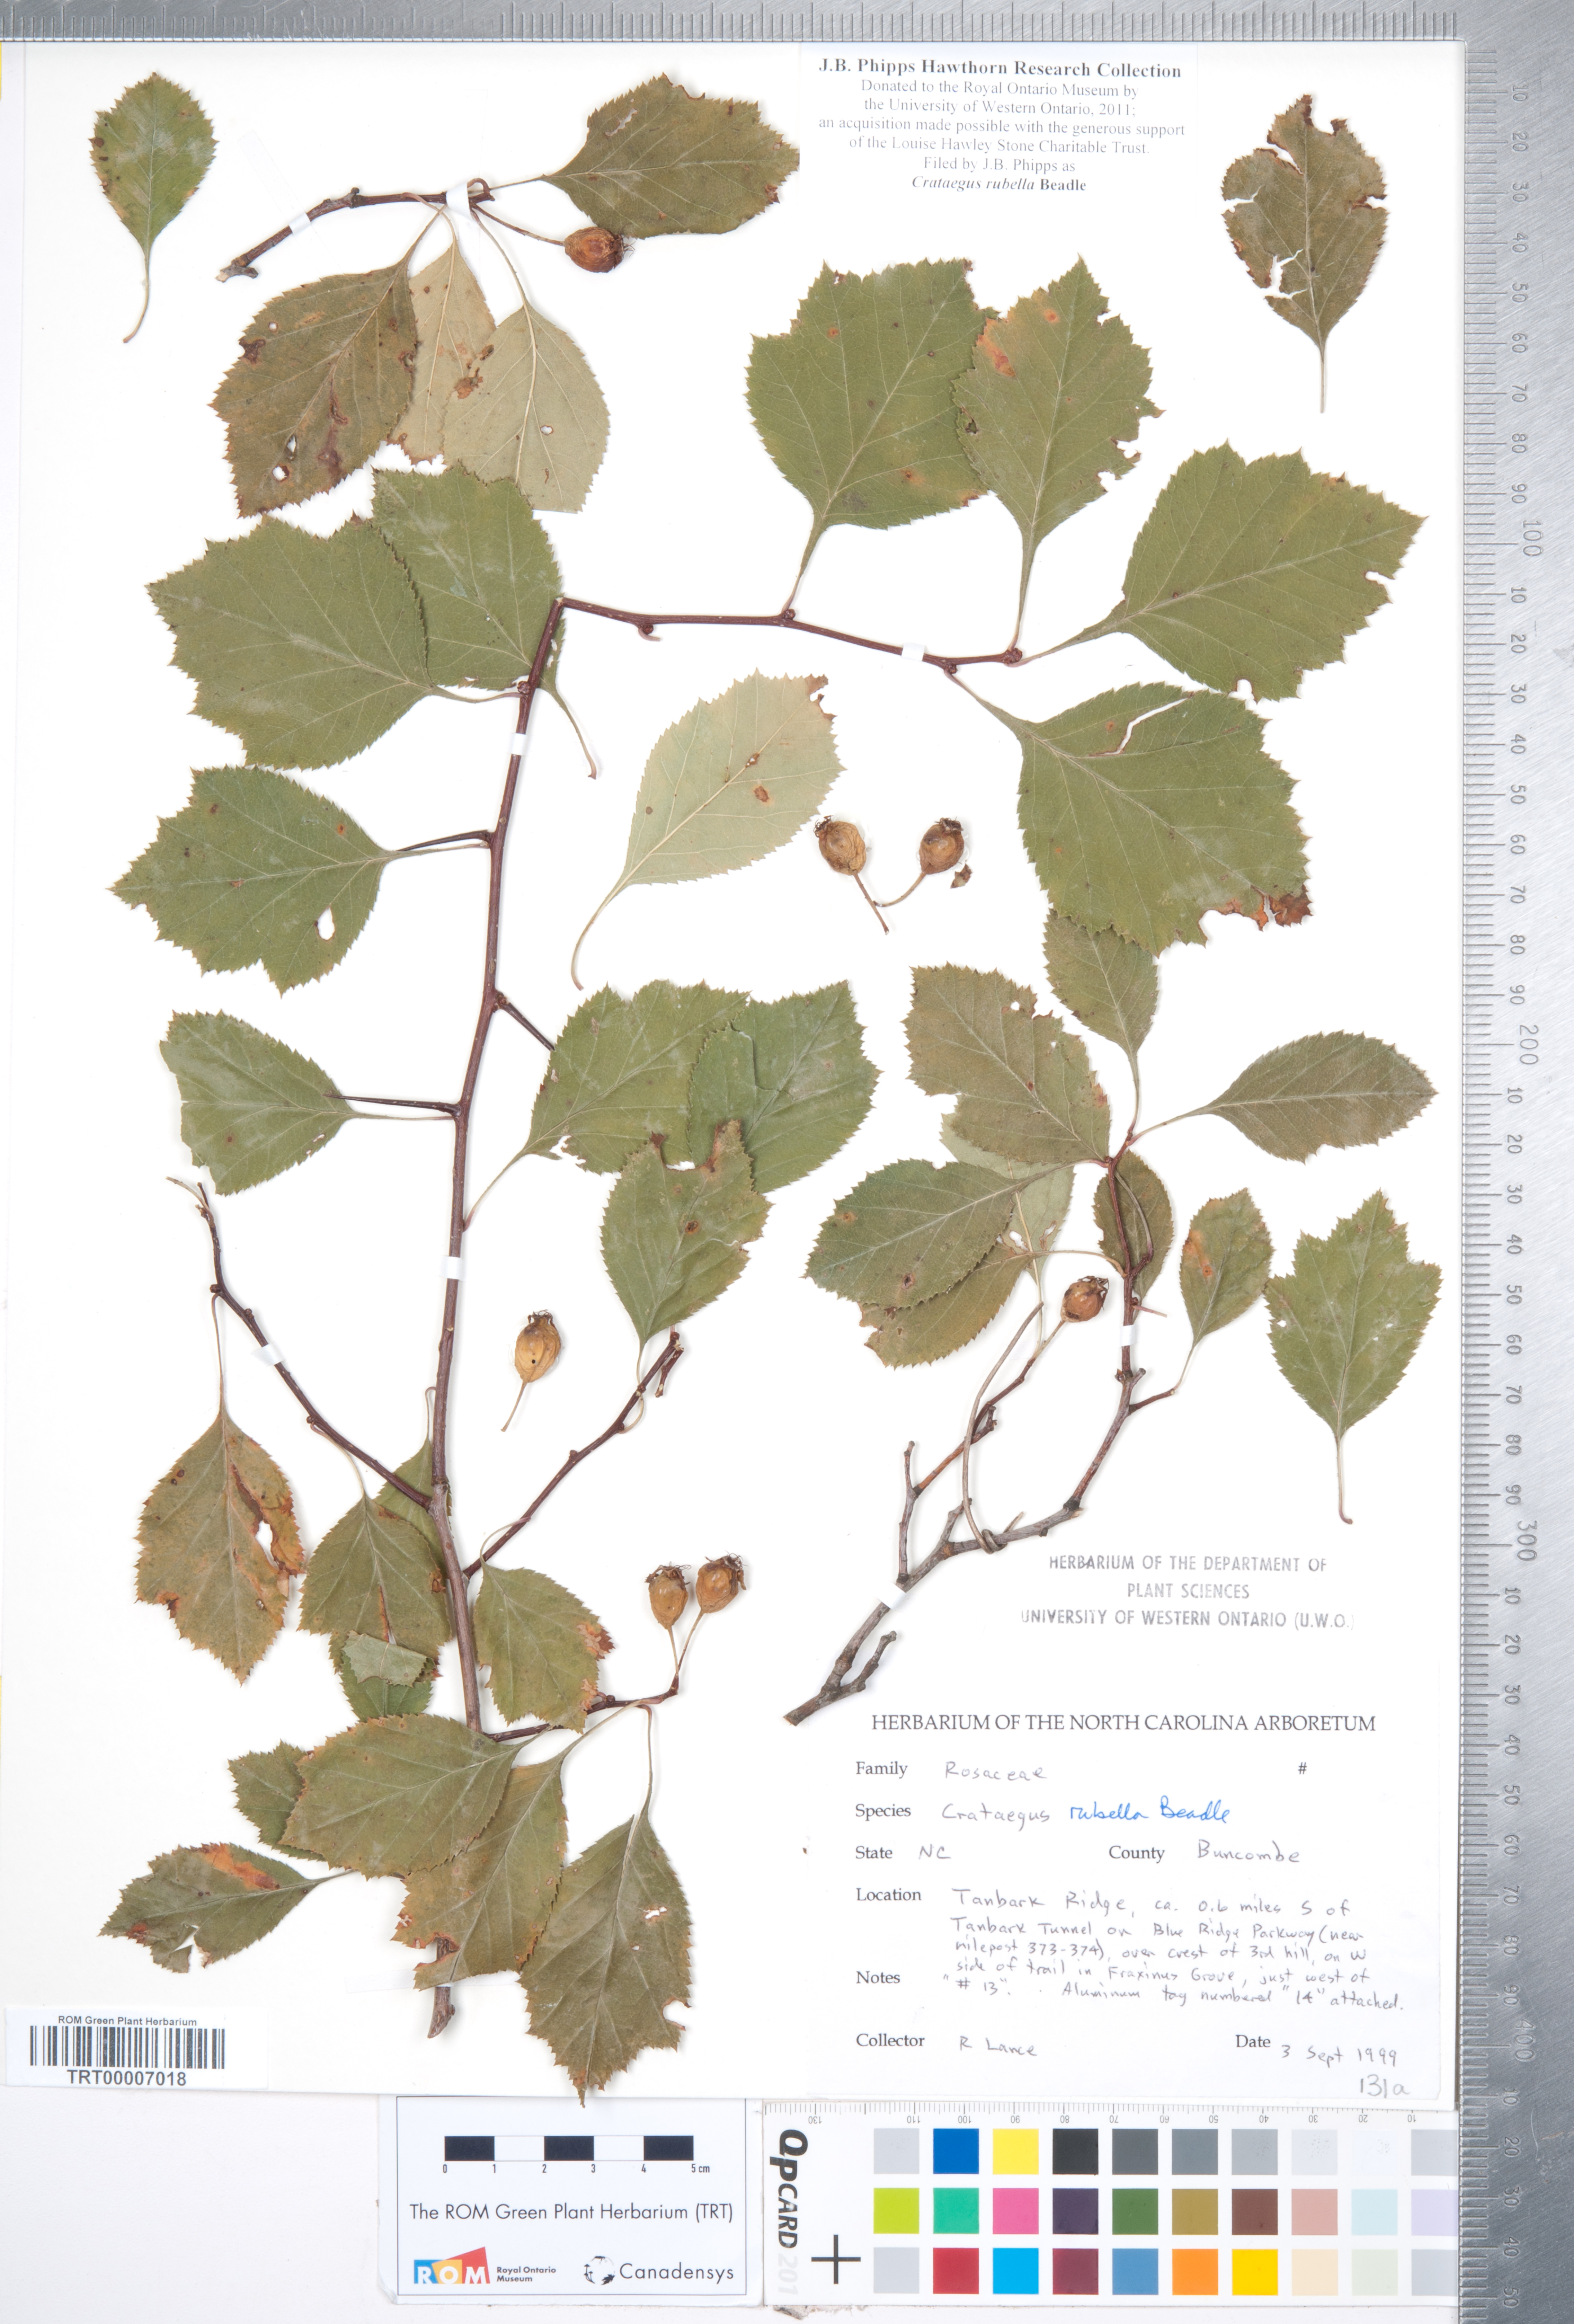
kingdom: Plantae
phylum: Tracheophyta
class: Magnoliopsida
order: Rosales
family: Rosaceae
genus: Crataegus
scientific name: Crataegus intricata
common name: Biltmore hawthorn
